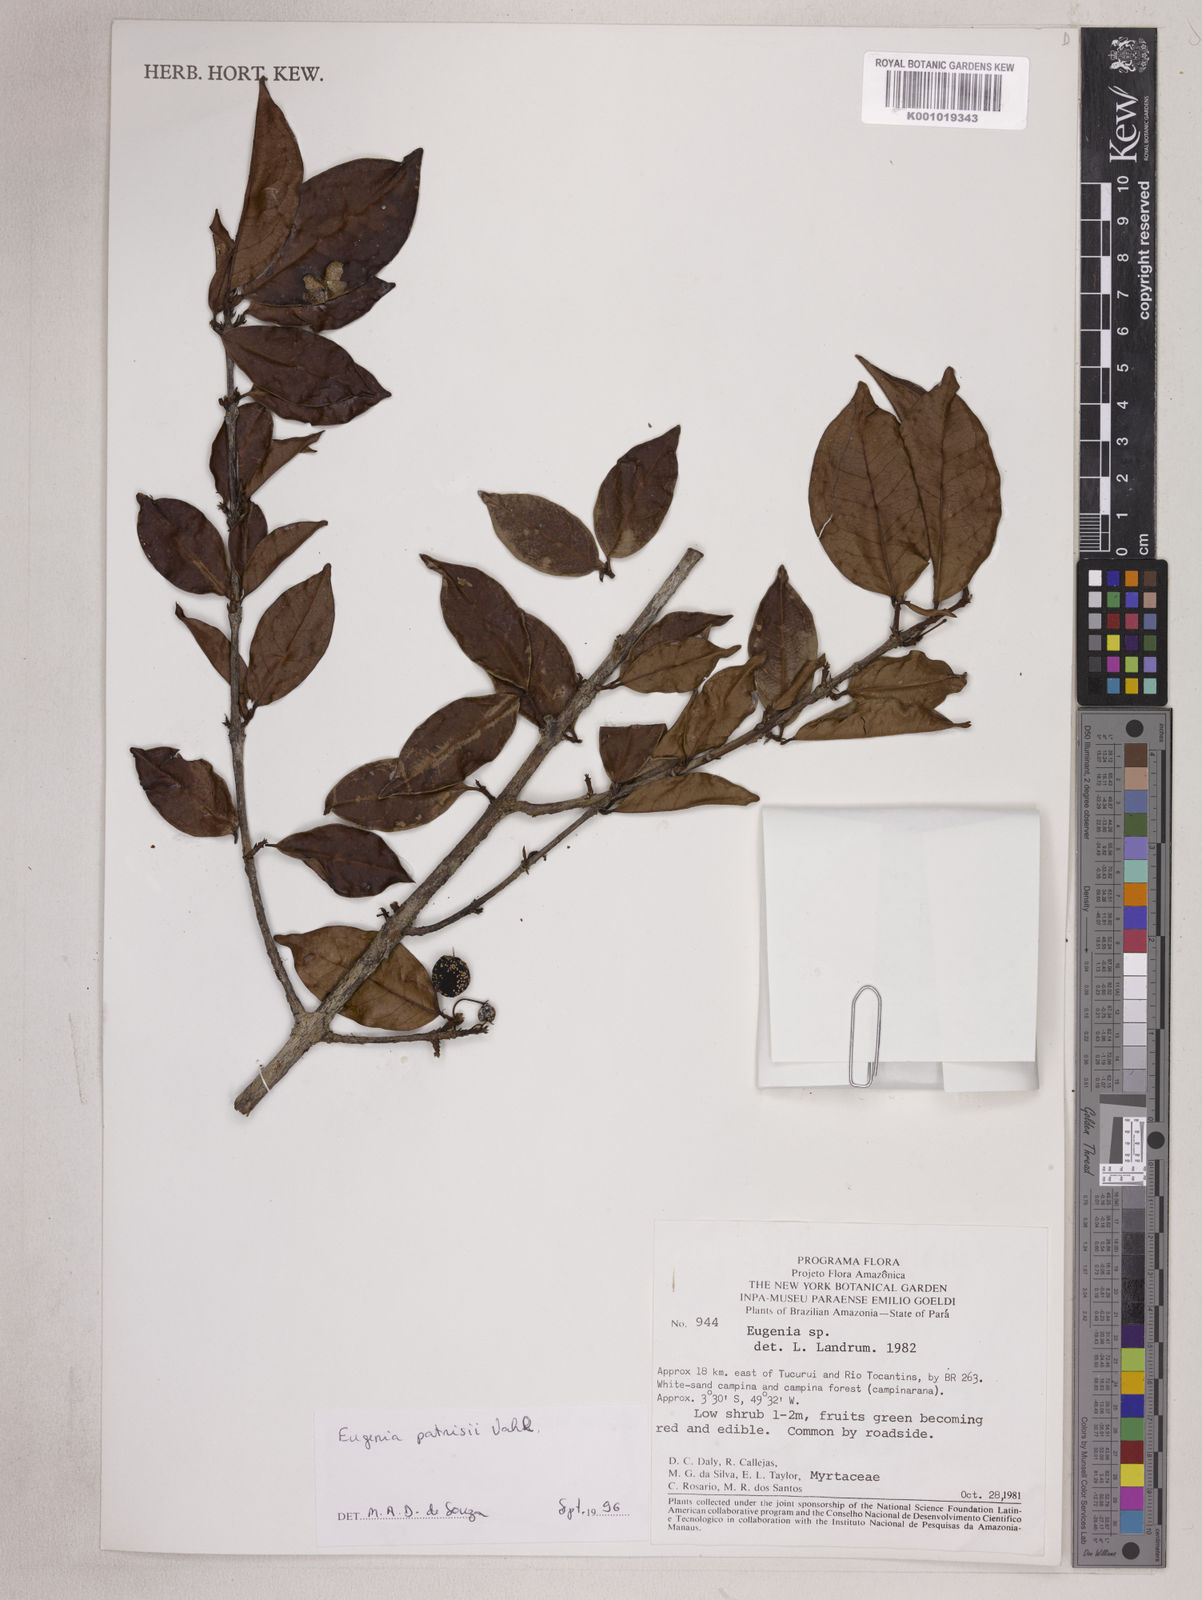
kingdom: Plantae
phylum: Tracheophyta
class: Magnoliopsida
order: Myrtales
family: Myrtaceae
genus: Eugenia
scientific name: Eugenia patrisii
